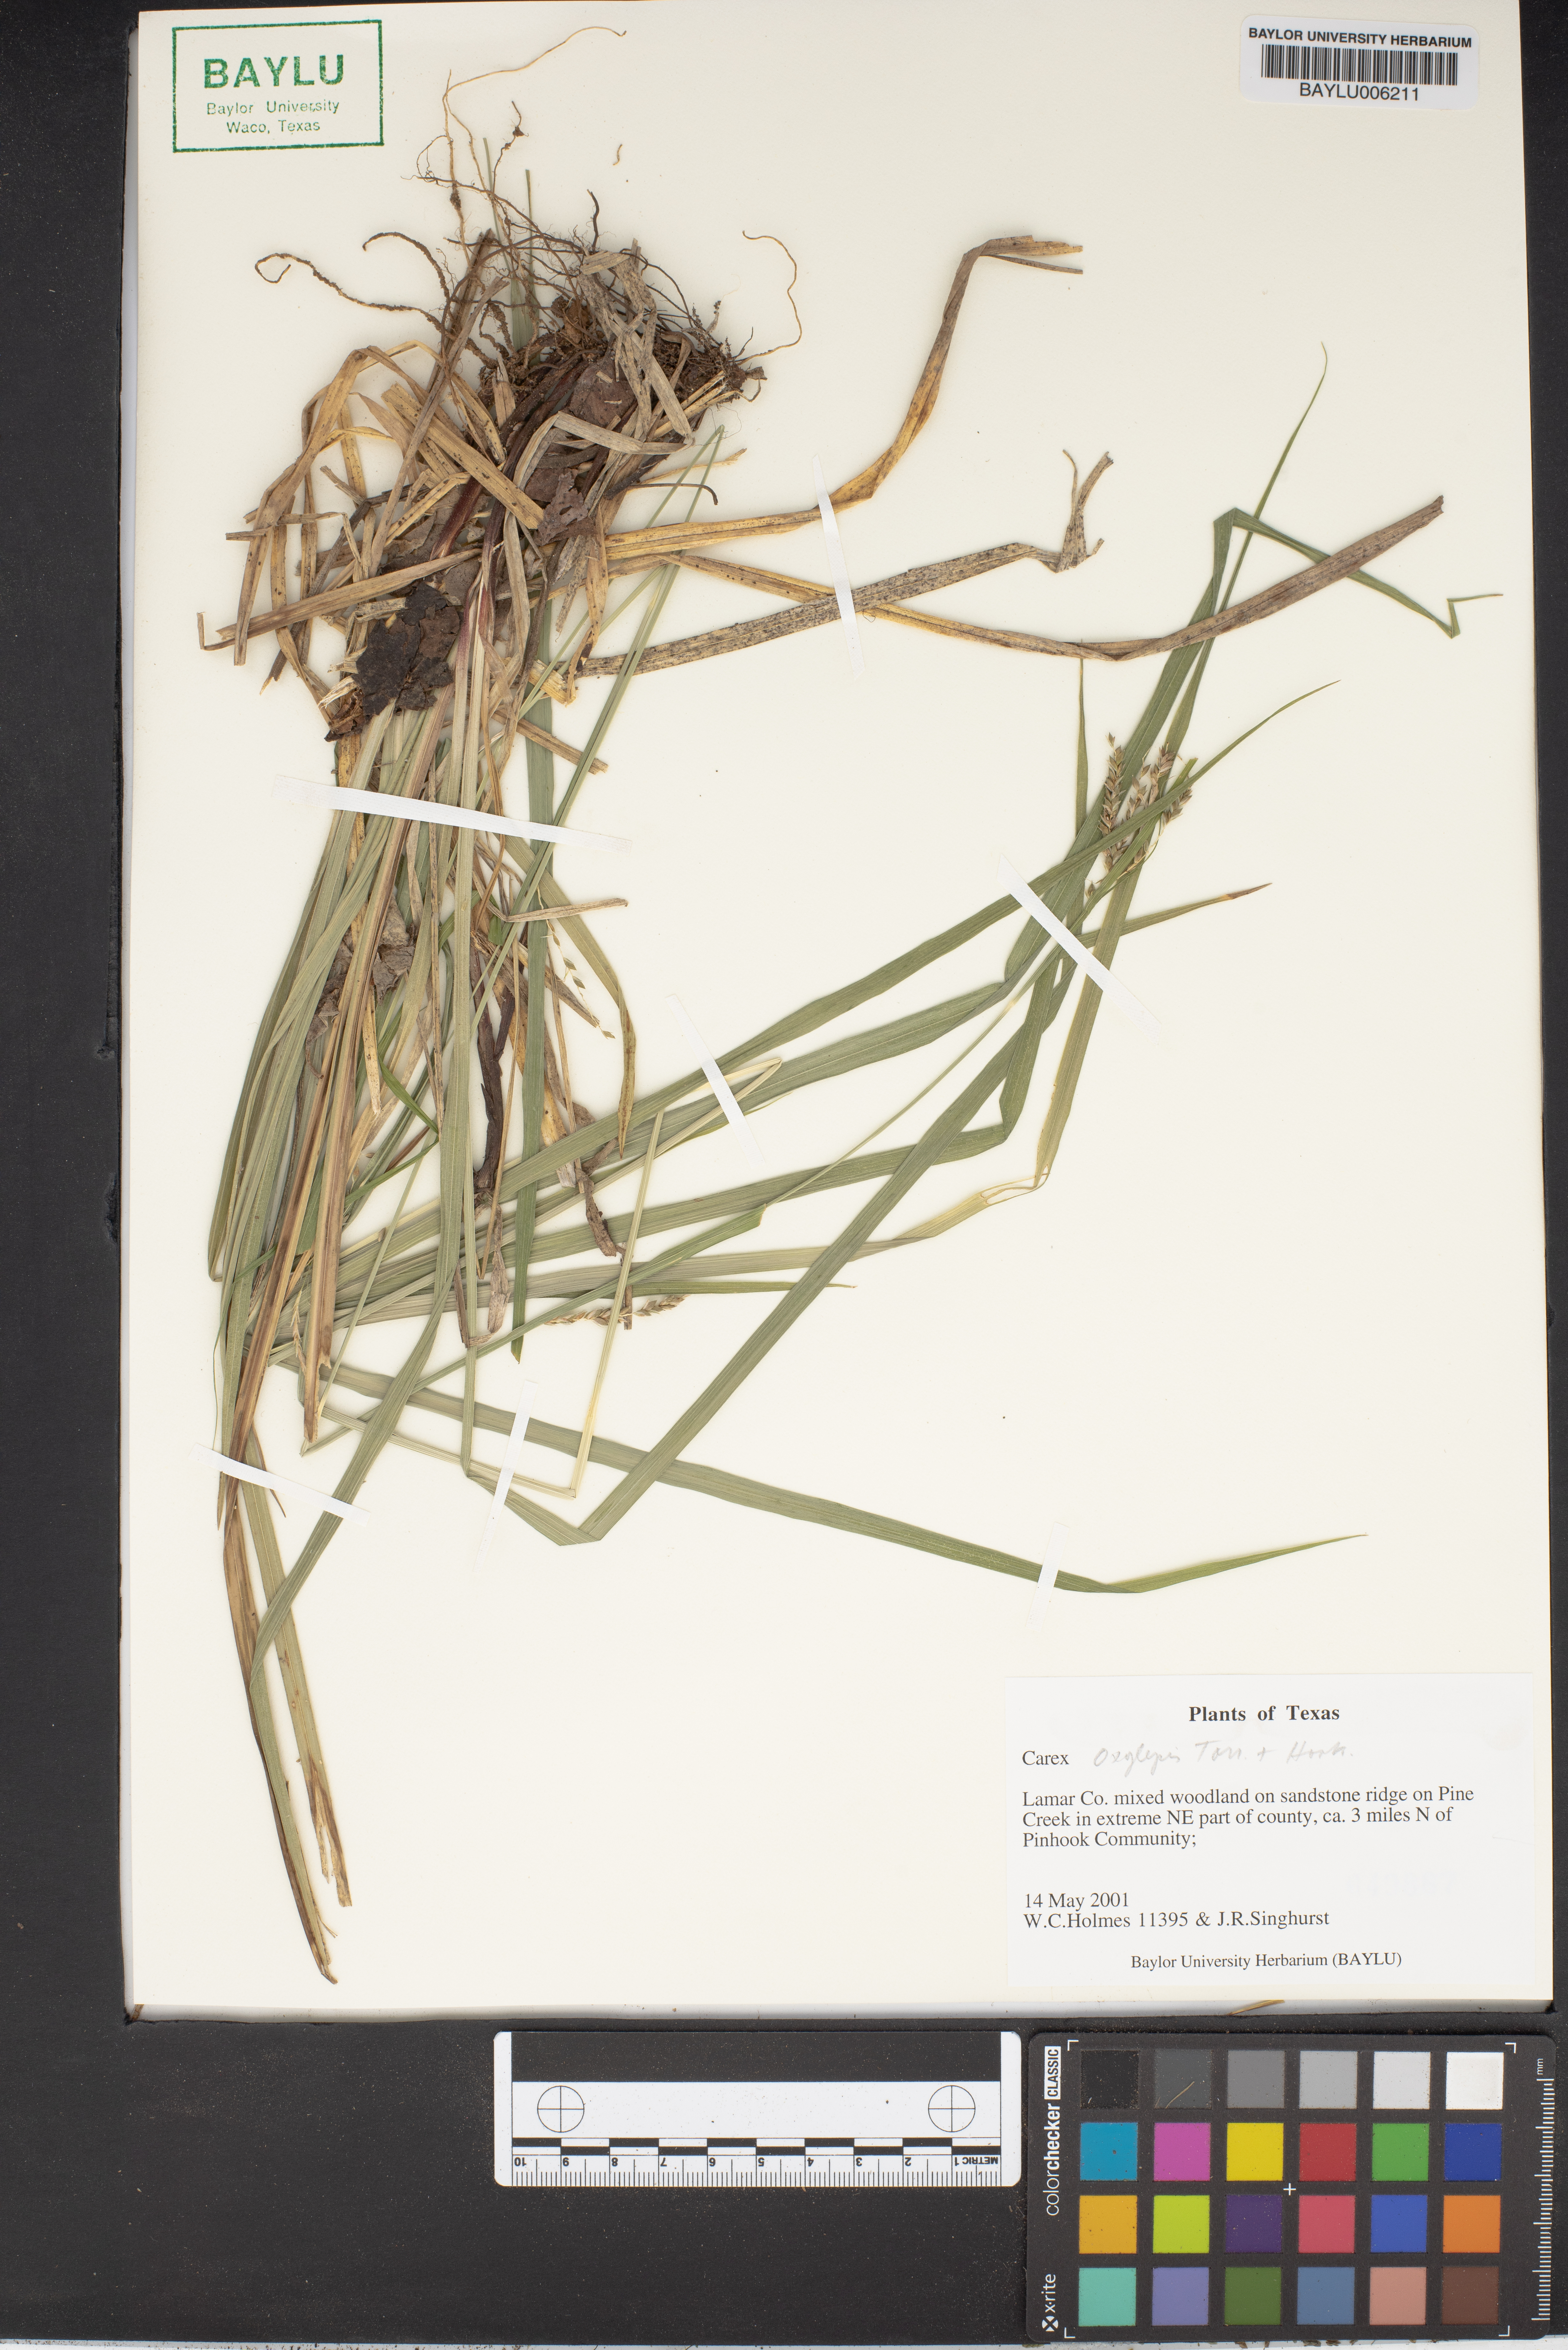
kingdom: Plantae
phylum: Tracheophyta
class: Liliopsida
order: Poales
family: Cyperaceae
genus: Carex
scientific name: Carex oxylepis
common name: Sharpscale sedge
